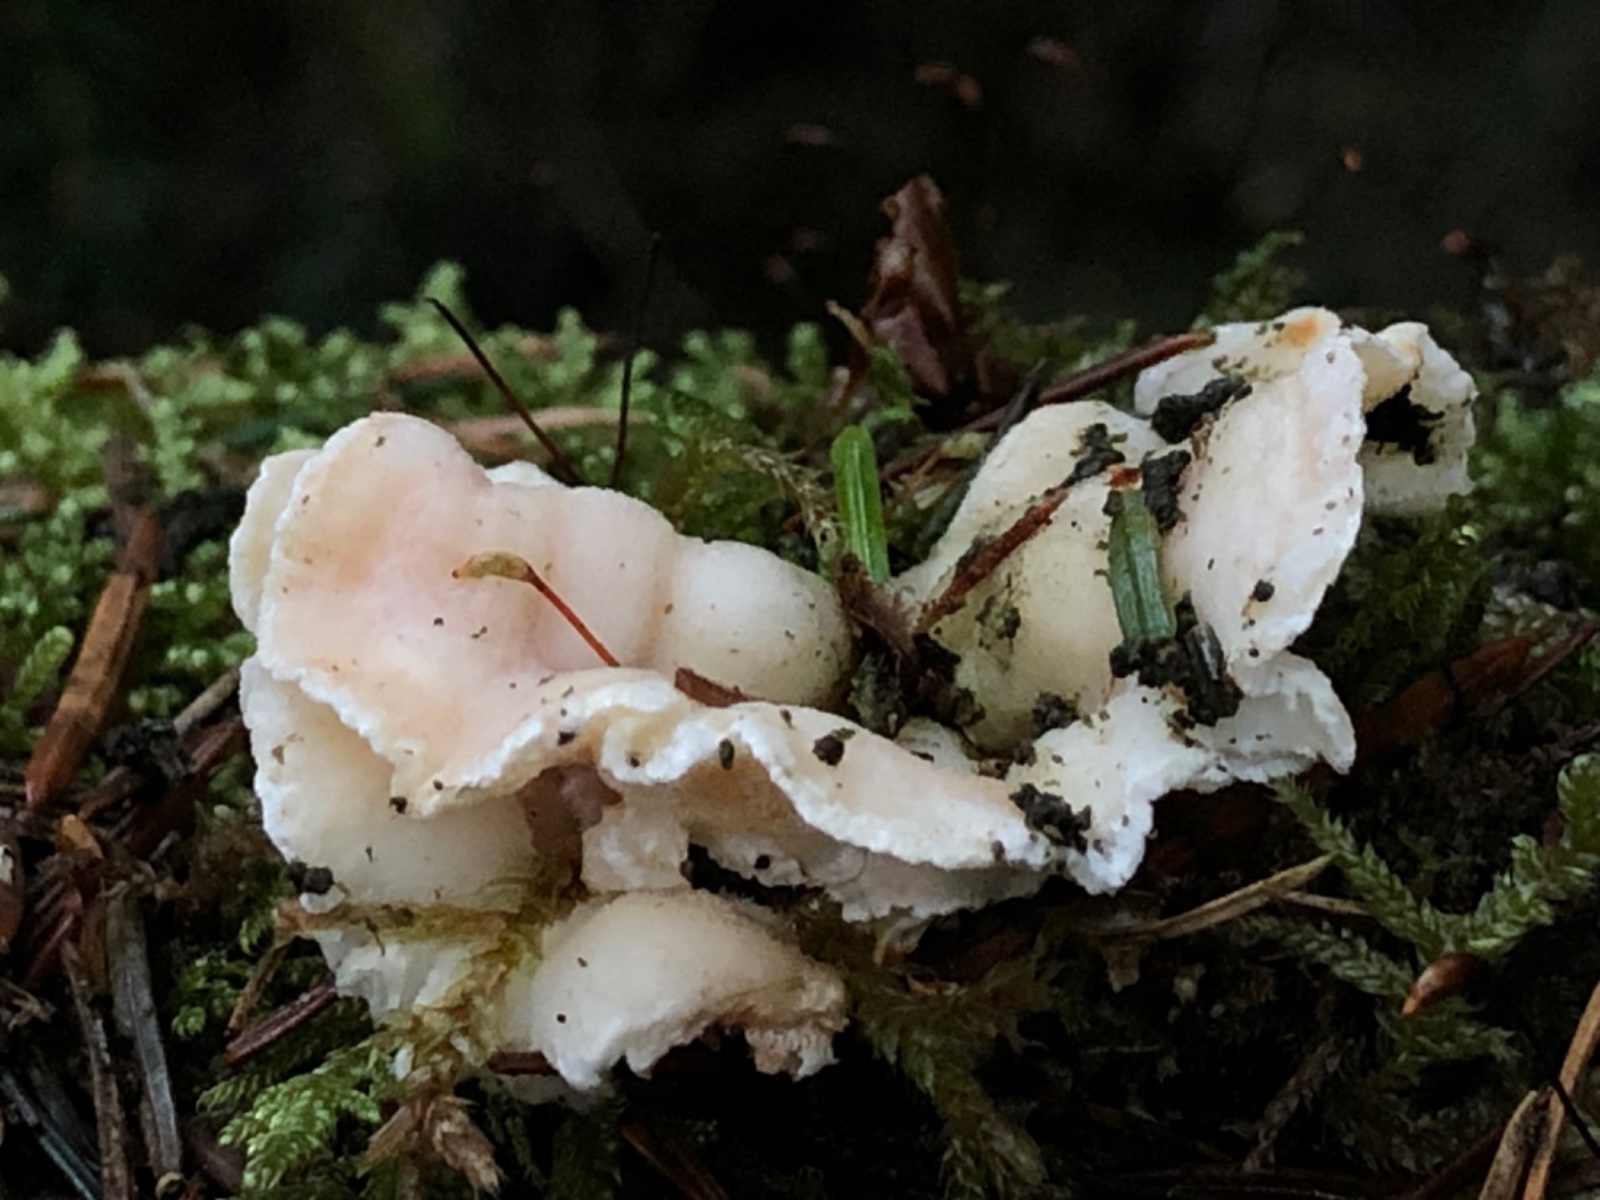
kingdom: Fungi
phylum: Basidiomycota
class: Agaricomycetes
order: Polyporales
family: Incrustoporiaceae
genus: Skeletocutis
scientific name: Skeletocutis amorpha
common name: orange krystalporesvamp
